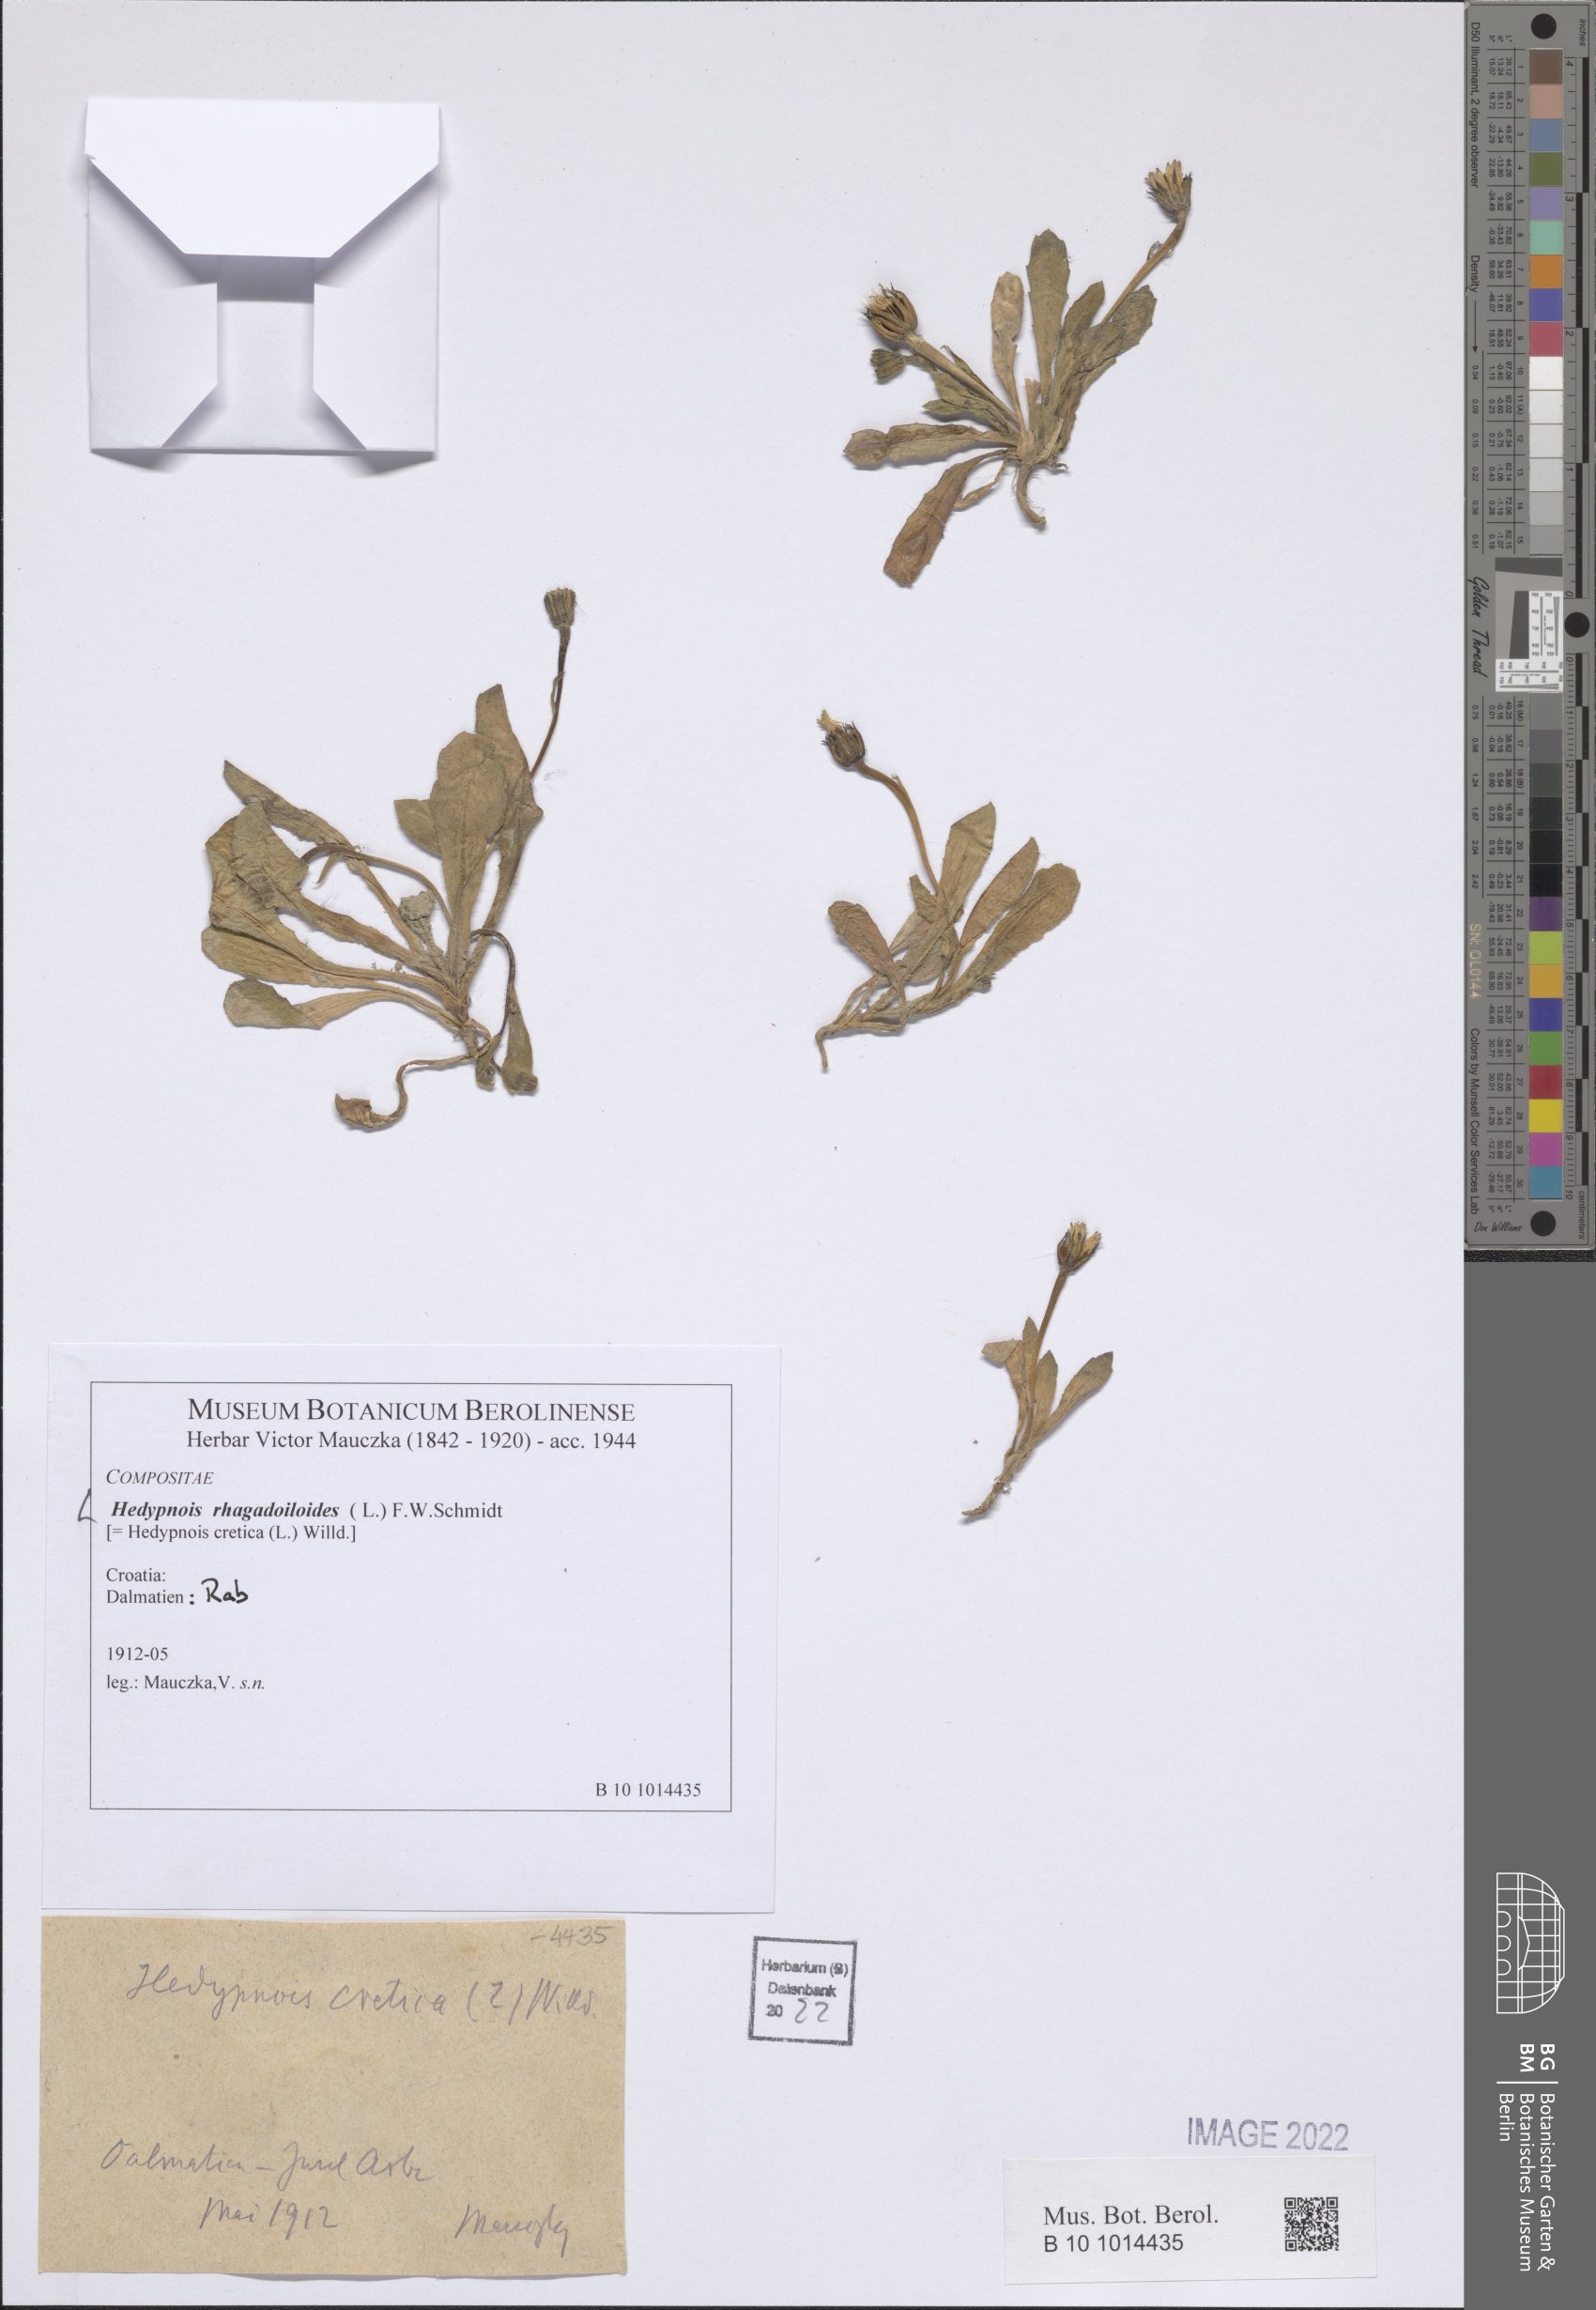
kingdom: Plantae
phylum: Tracheophyta
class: Magnoliopsida
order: Asterales
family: Asteraceae
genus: Hedypnois
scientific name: Hedypnois rhagadioloides
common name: Cretan weed
